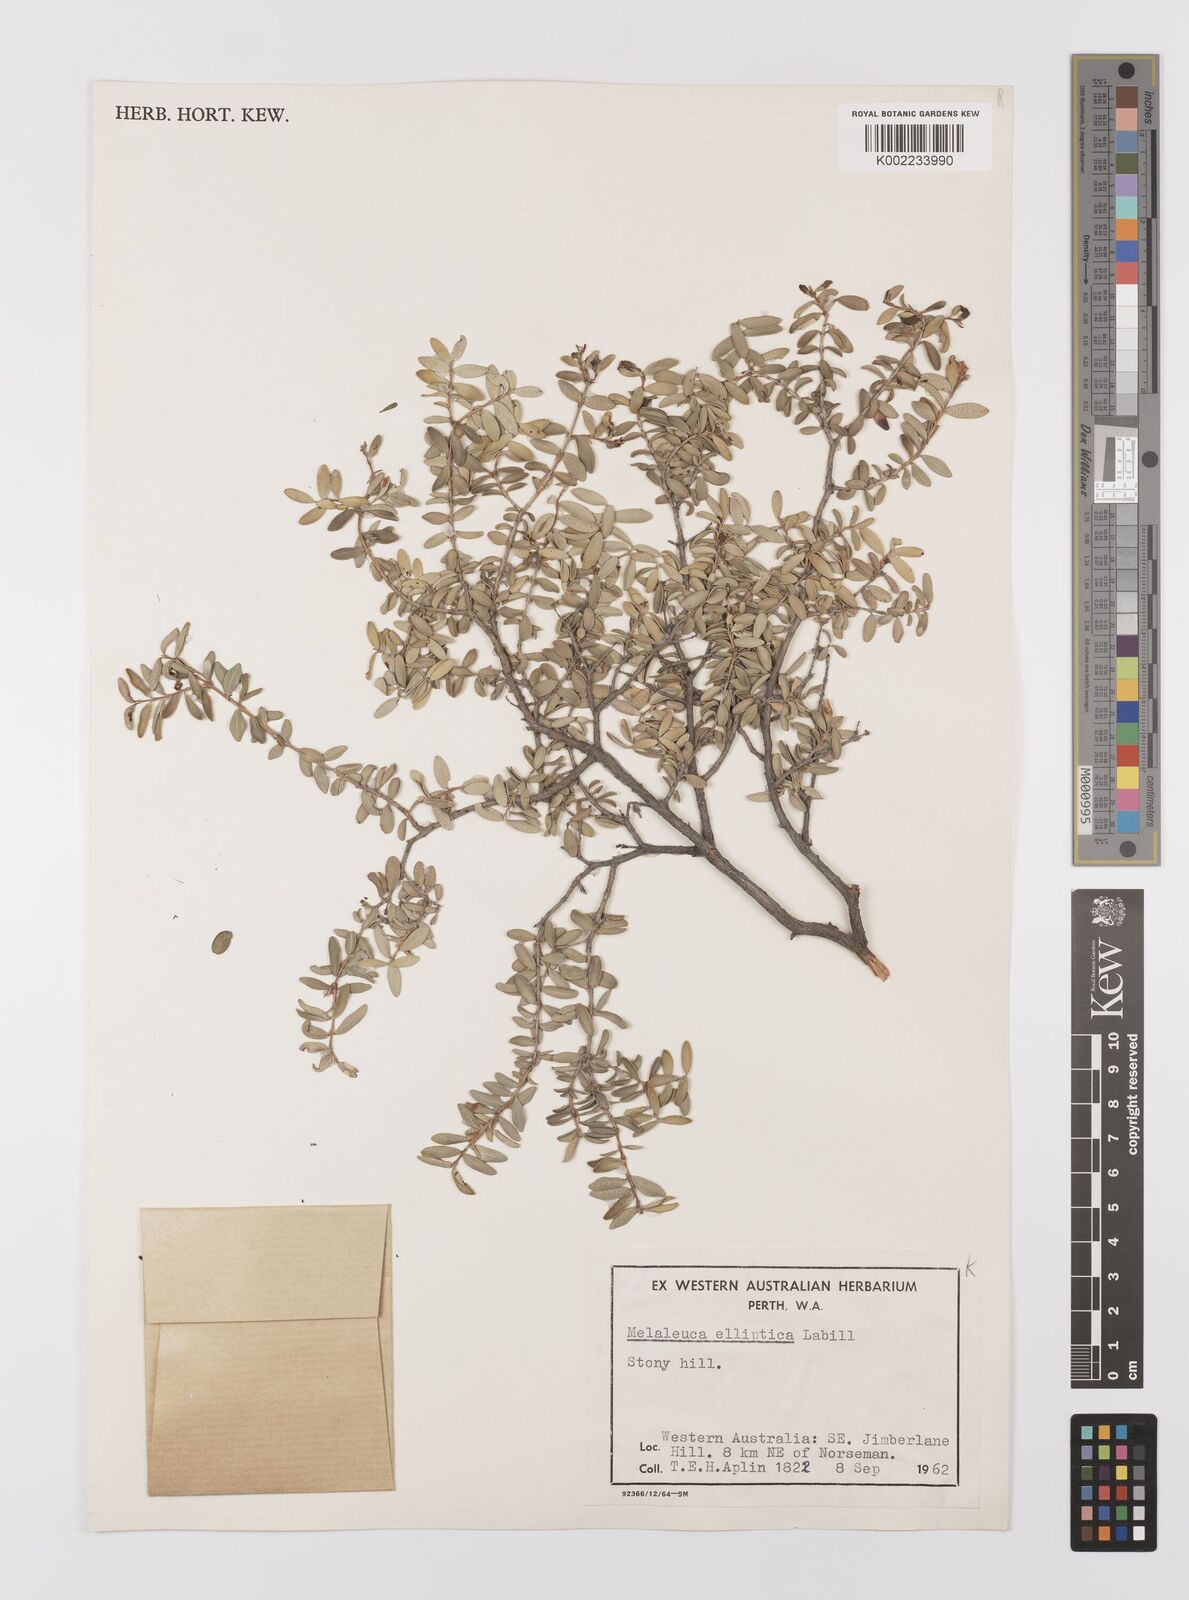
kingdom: Plantae
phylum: Tracheophyta
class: Magnoliopsida
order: Myrtales
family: Myrtaceae
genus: Melaleuca
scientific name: Melaleuca elliptica
